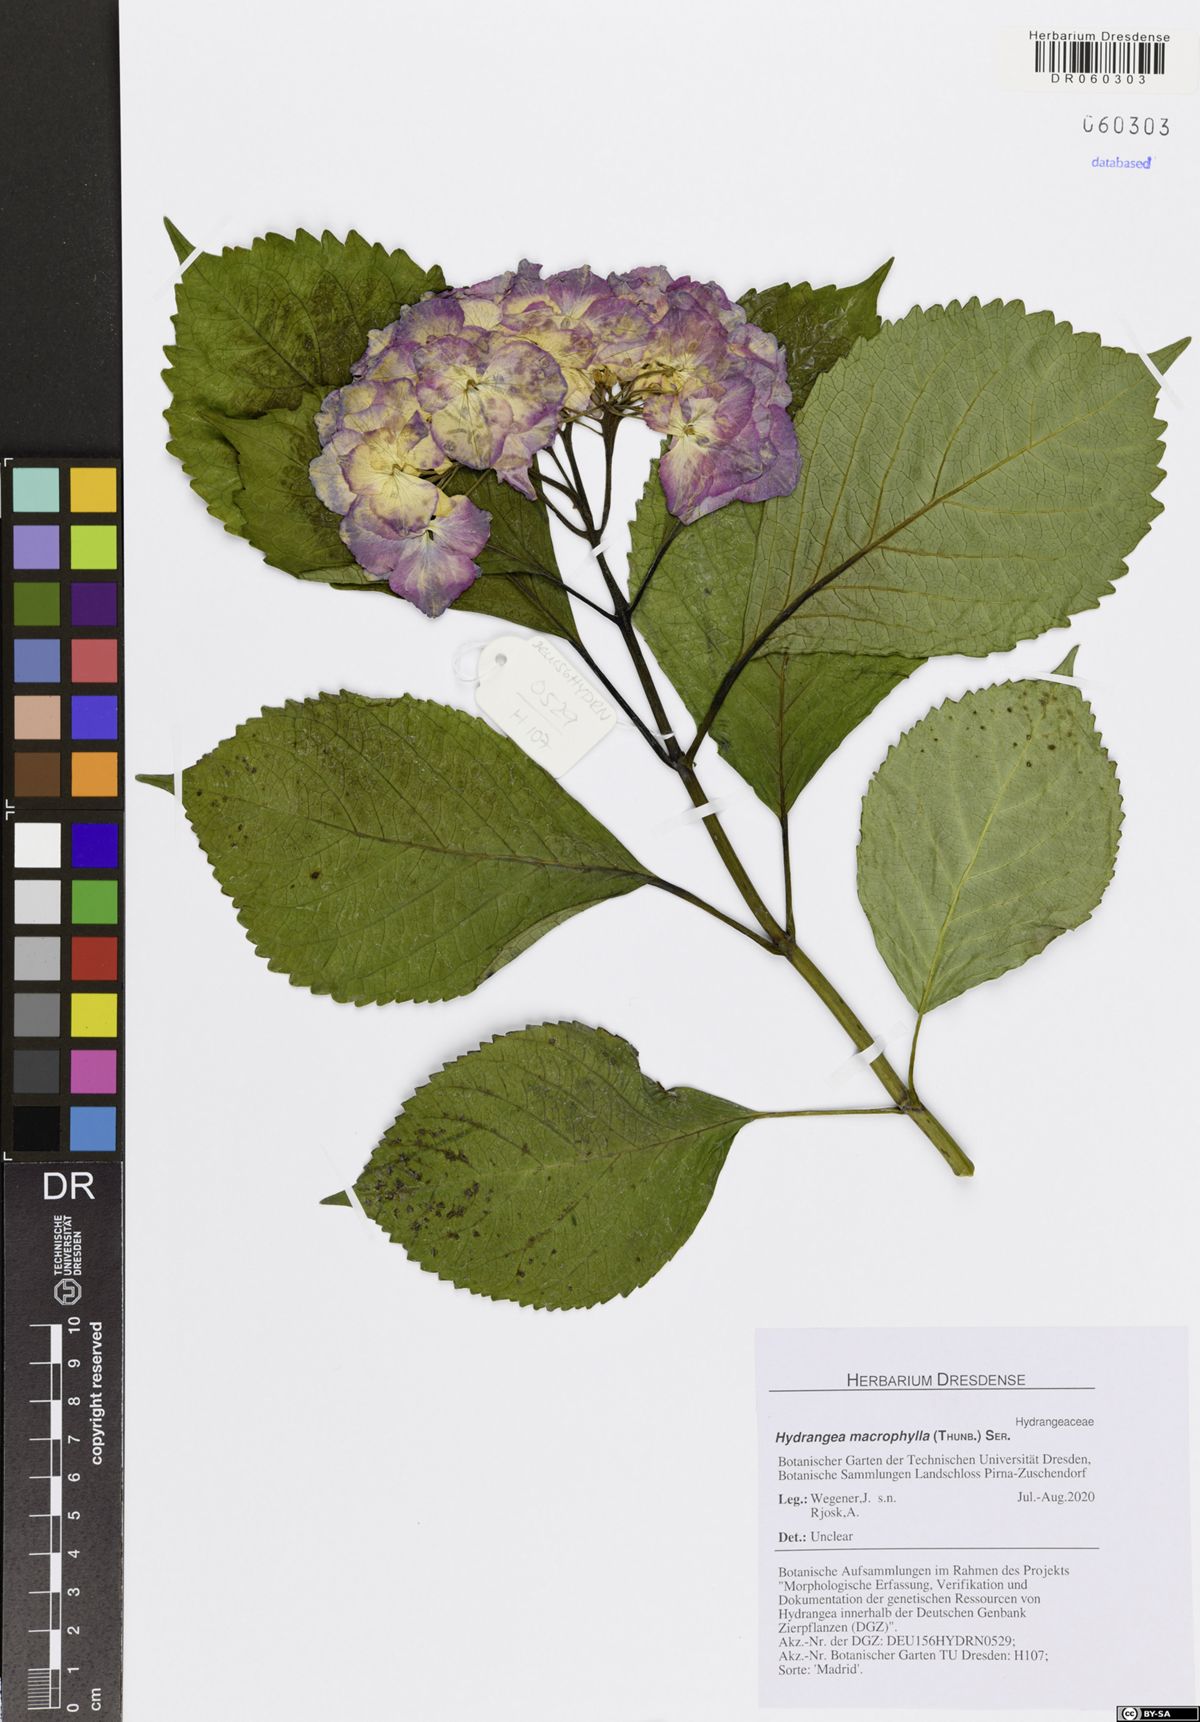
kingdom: Plantae
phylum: Tracheophyta
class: Magnoliopsida
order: Cornales
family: Hydrangeaceae
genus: Hydrangea
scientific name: Hydrangea macrophylla
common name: Hydrangea
